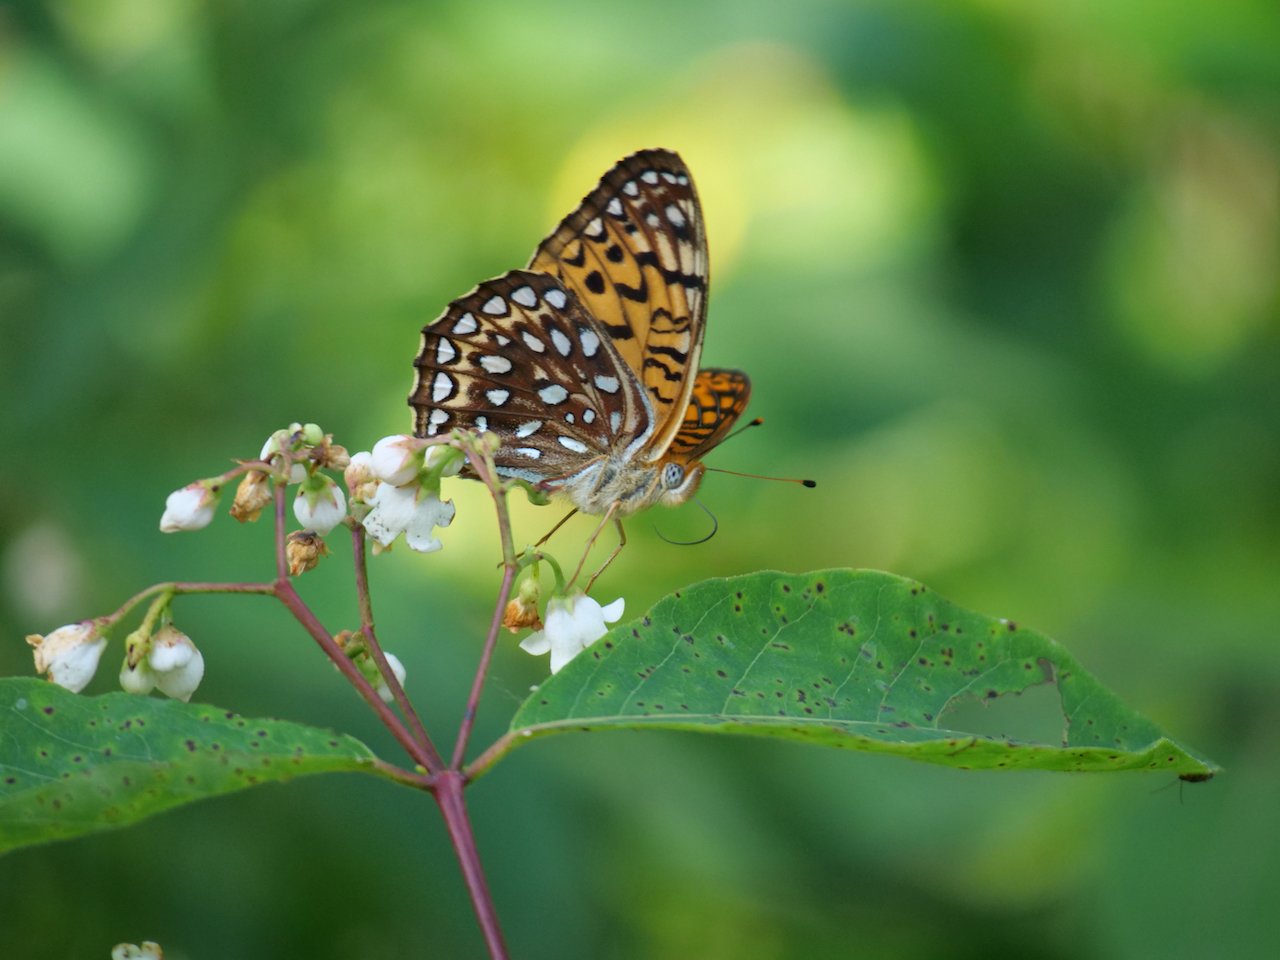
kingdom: Animalia
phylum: Arthropoda
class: Insecta
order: Lepidoptera
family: Nymphalidae
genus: Speyeria
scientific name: Speyeria atlantis
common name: Atlantis Fritillary
